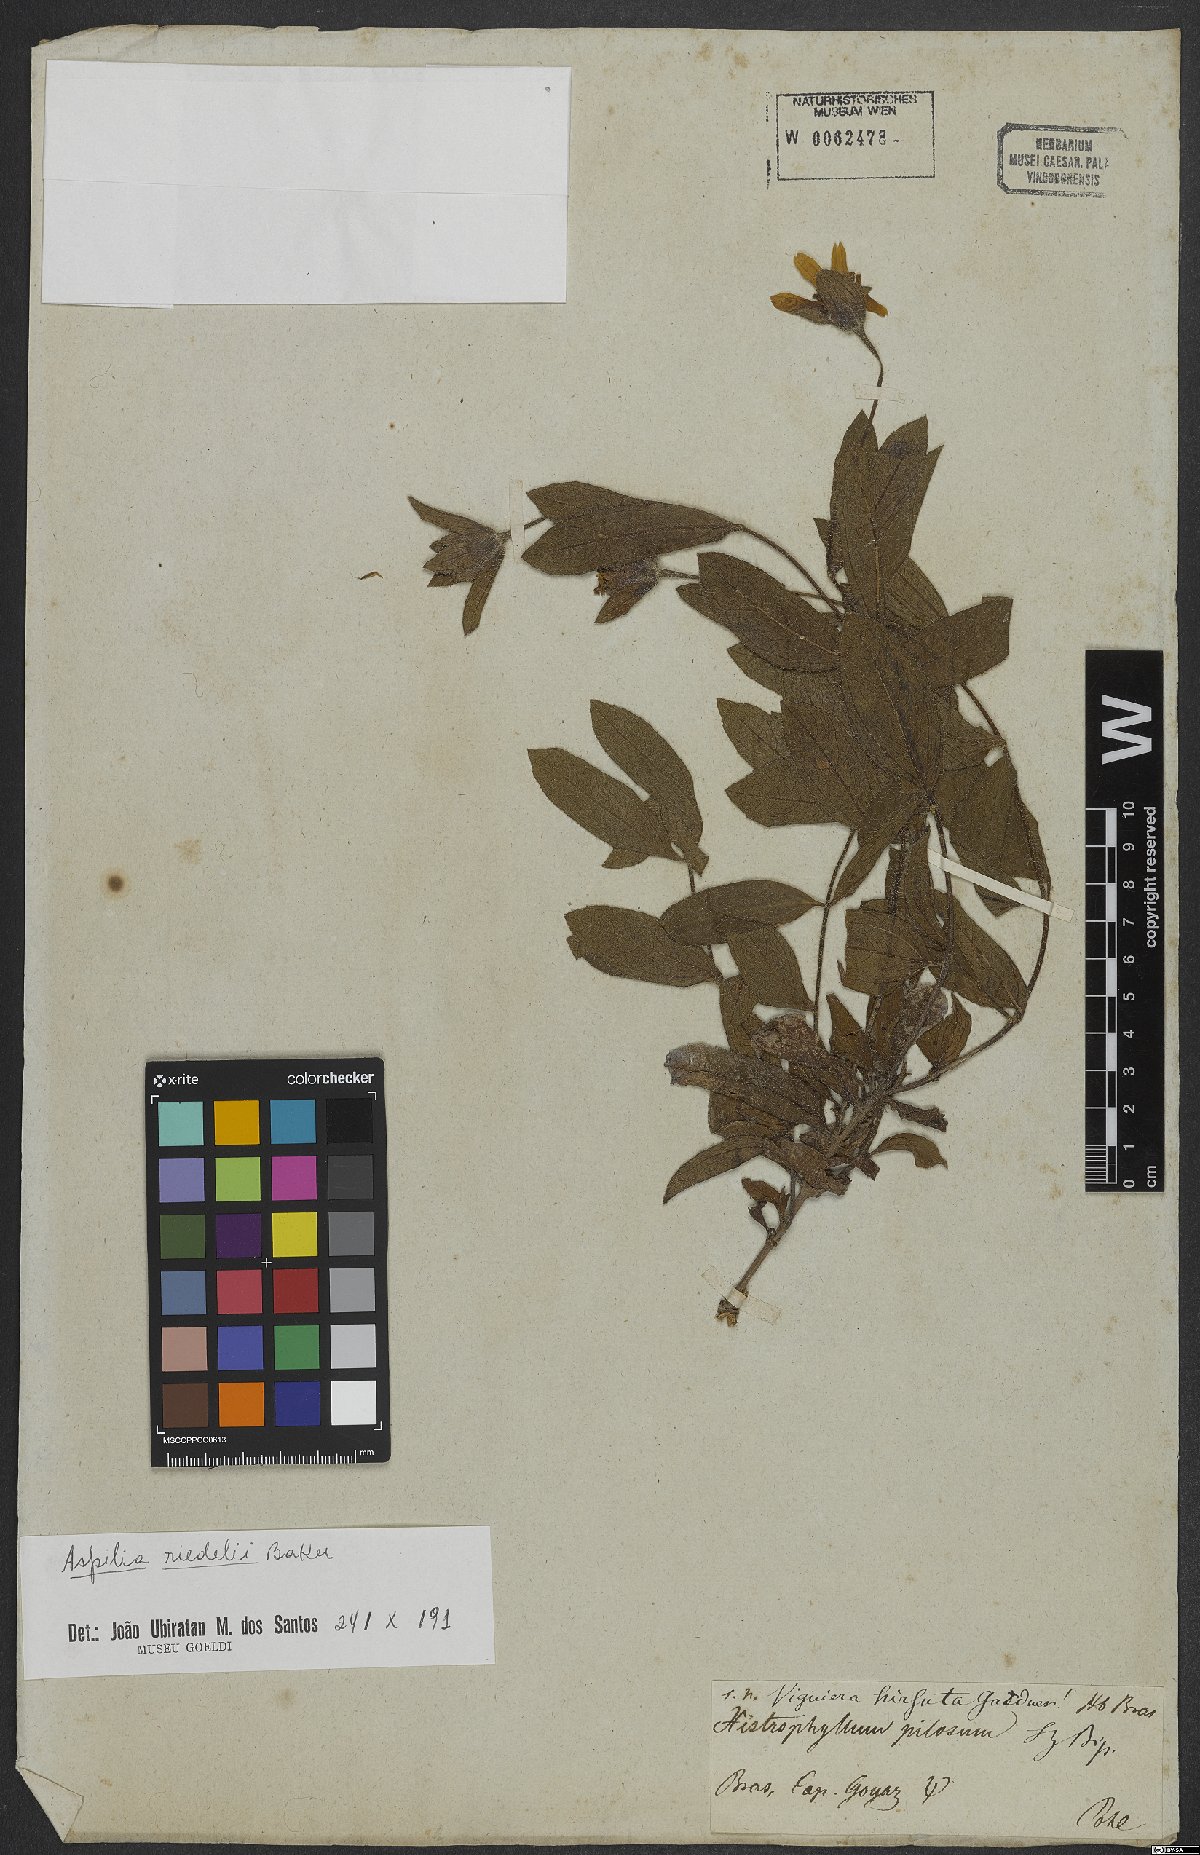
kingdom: Plantae
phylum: Tracheophyta
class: Magnoliopsida
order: Asterales
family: Asteraceae
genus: Wedelia
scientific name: Wedelia riedellii
